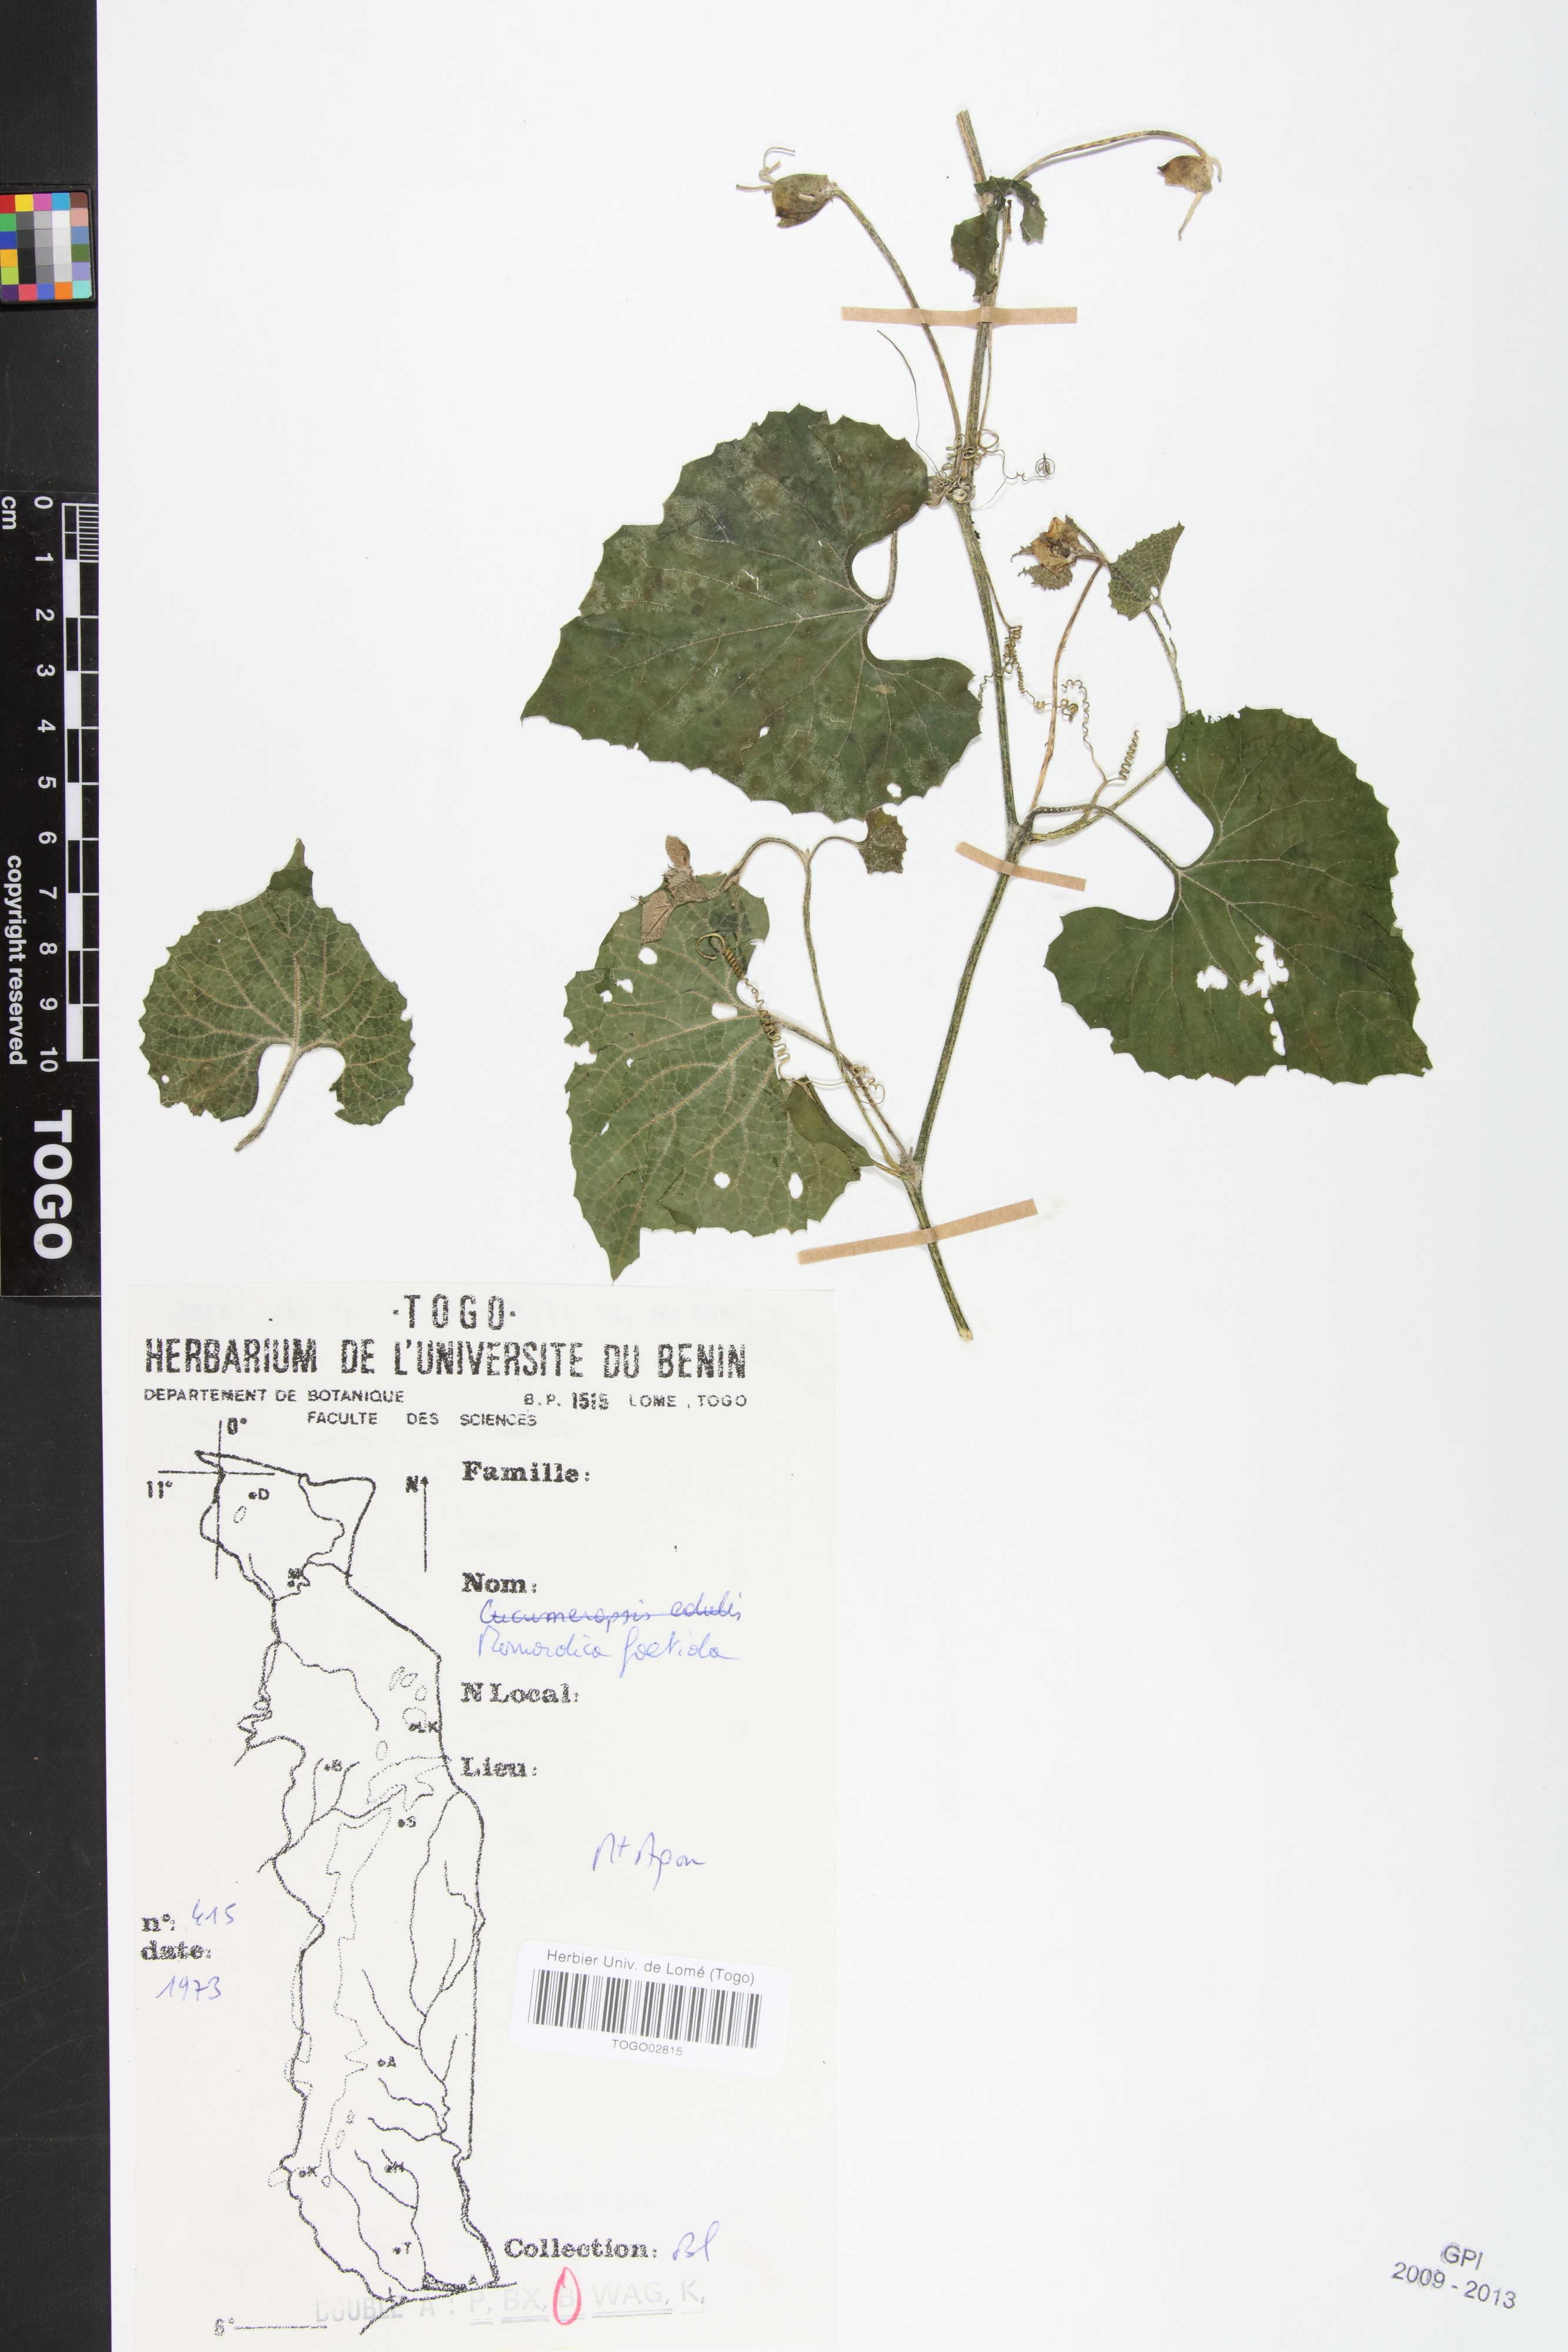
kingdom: Plantae
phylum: Tracheophyta
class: Magnoliopsida
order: Cucurbitales
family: Cucurbitaceae
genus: Momordica
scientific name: Momordica foetida
